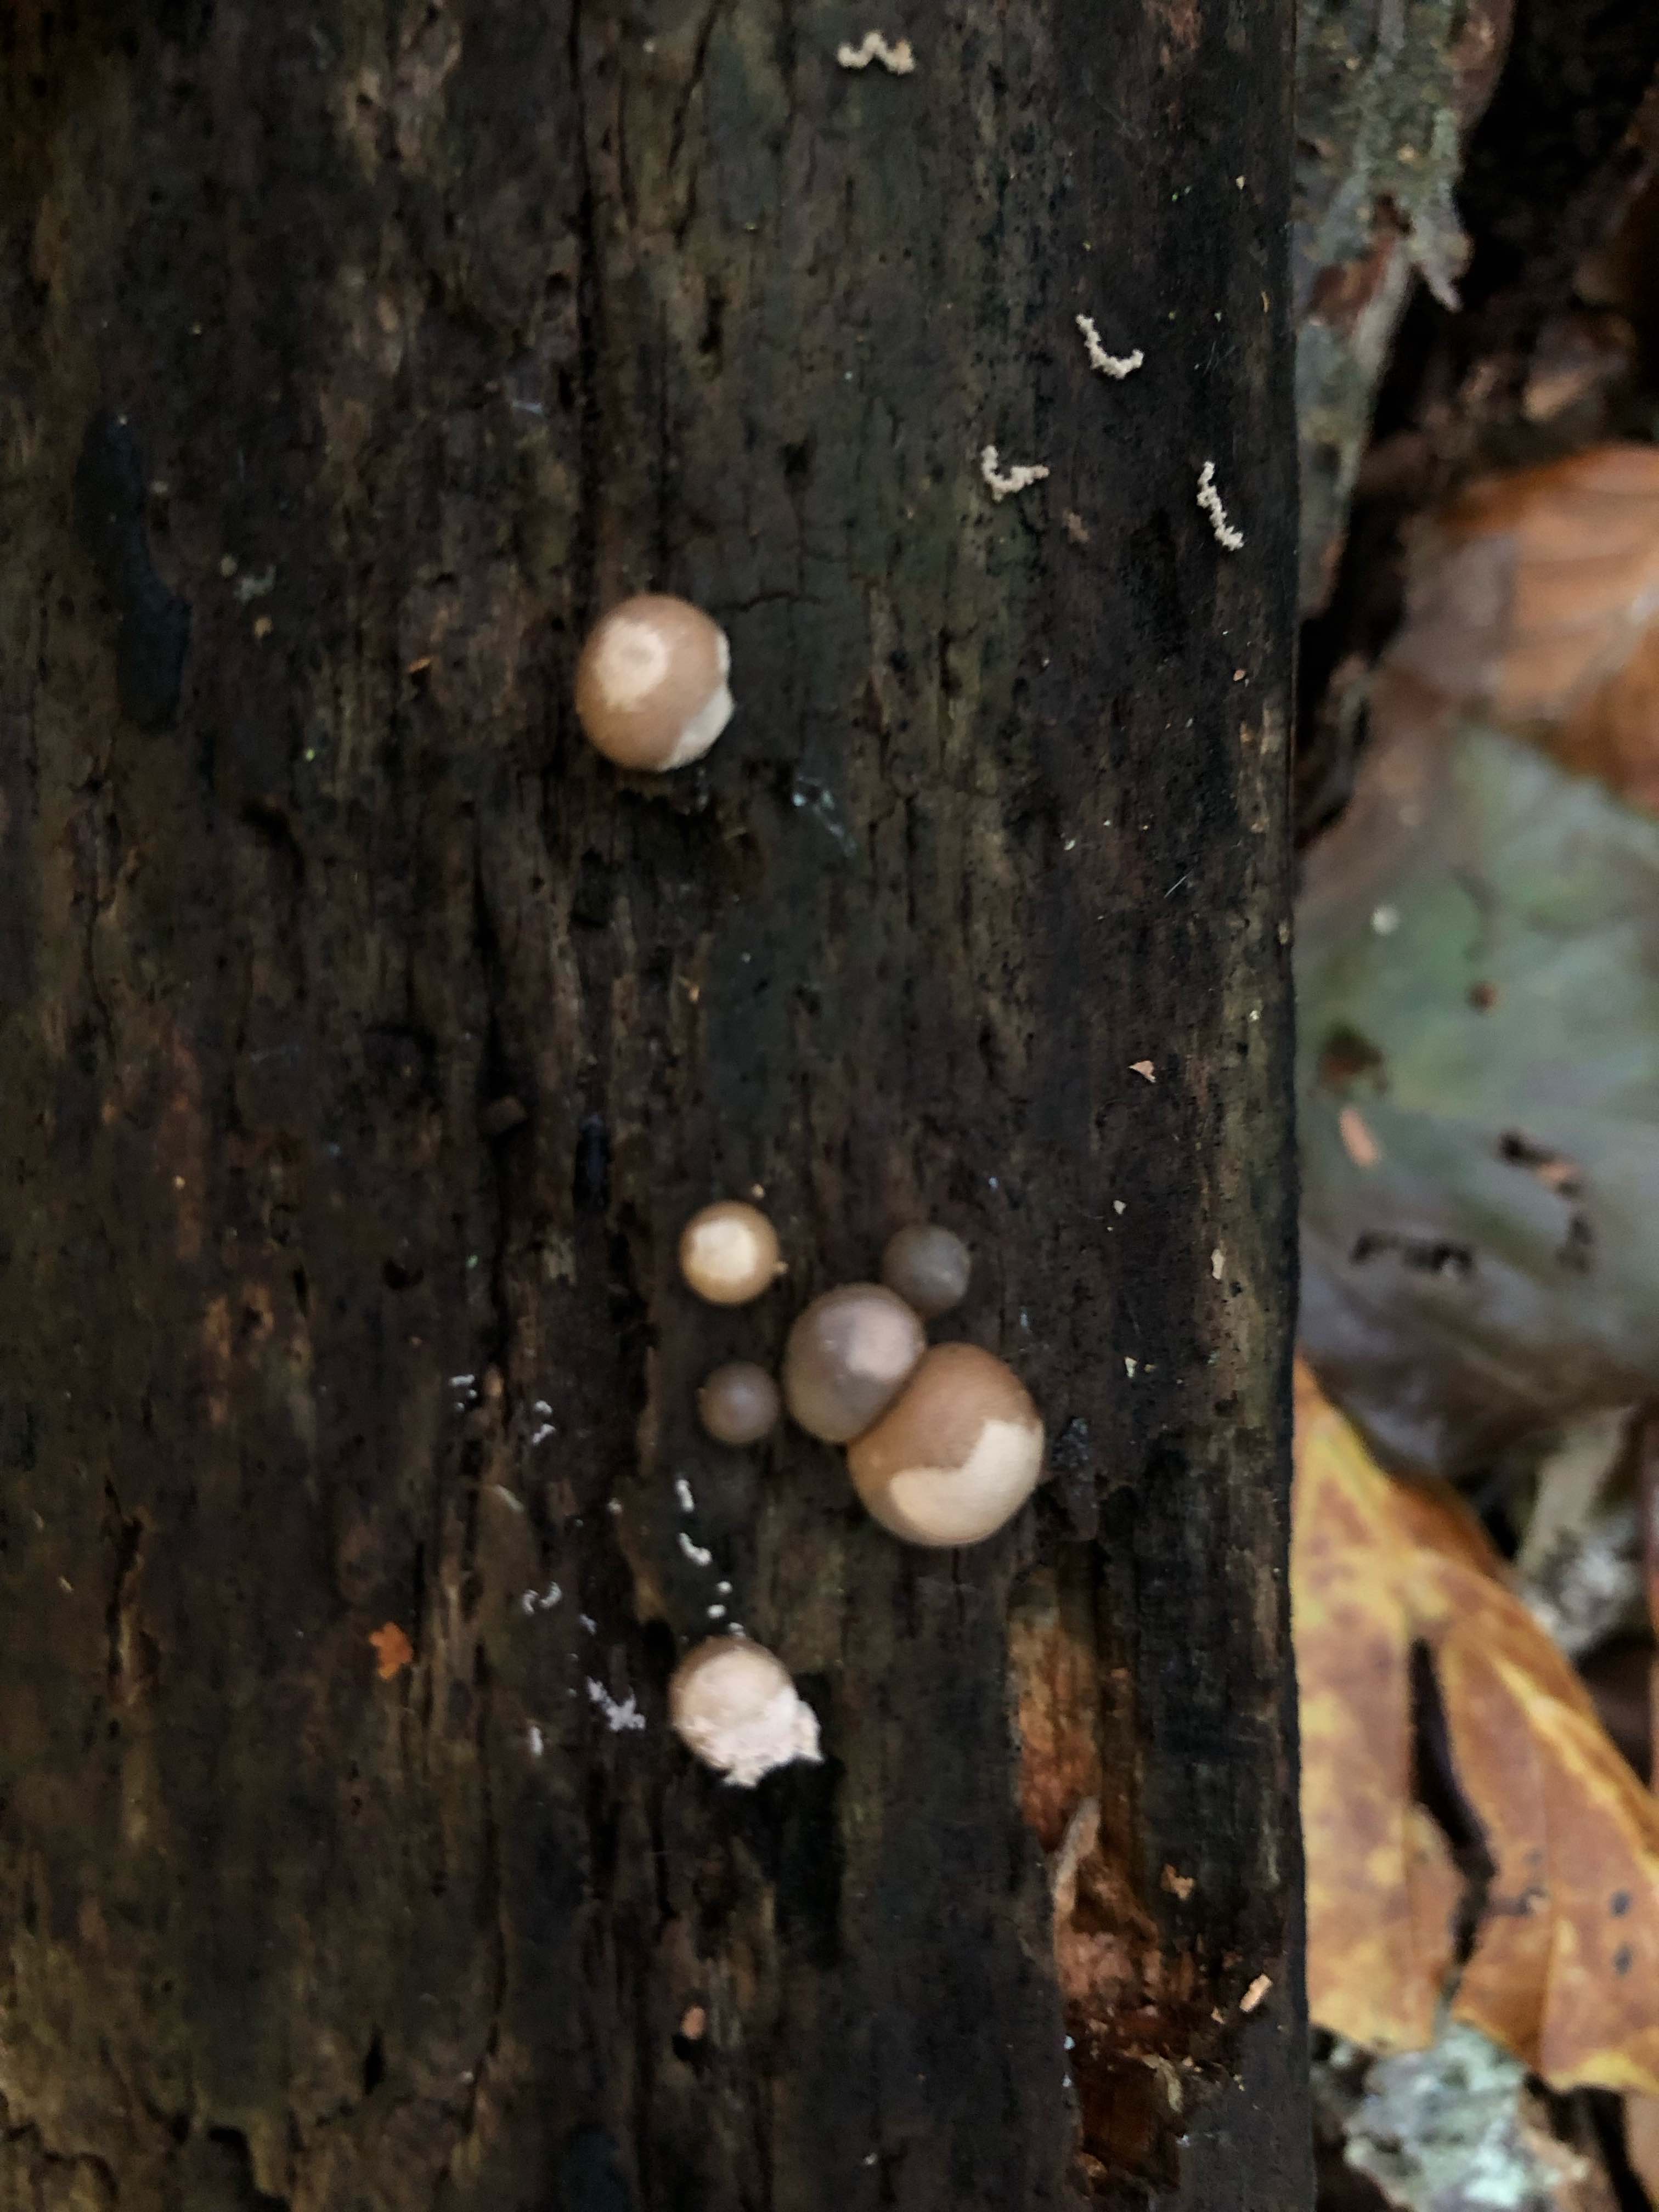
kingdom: Protozoa
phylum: Mycetozoa
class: Myxomycetes
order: Cribrariales
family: Tubiferaceae
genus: Lycogala
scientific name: Lycogala epidendrum
